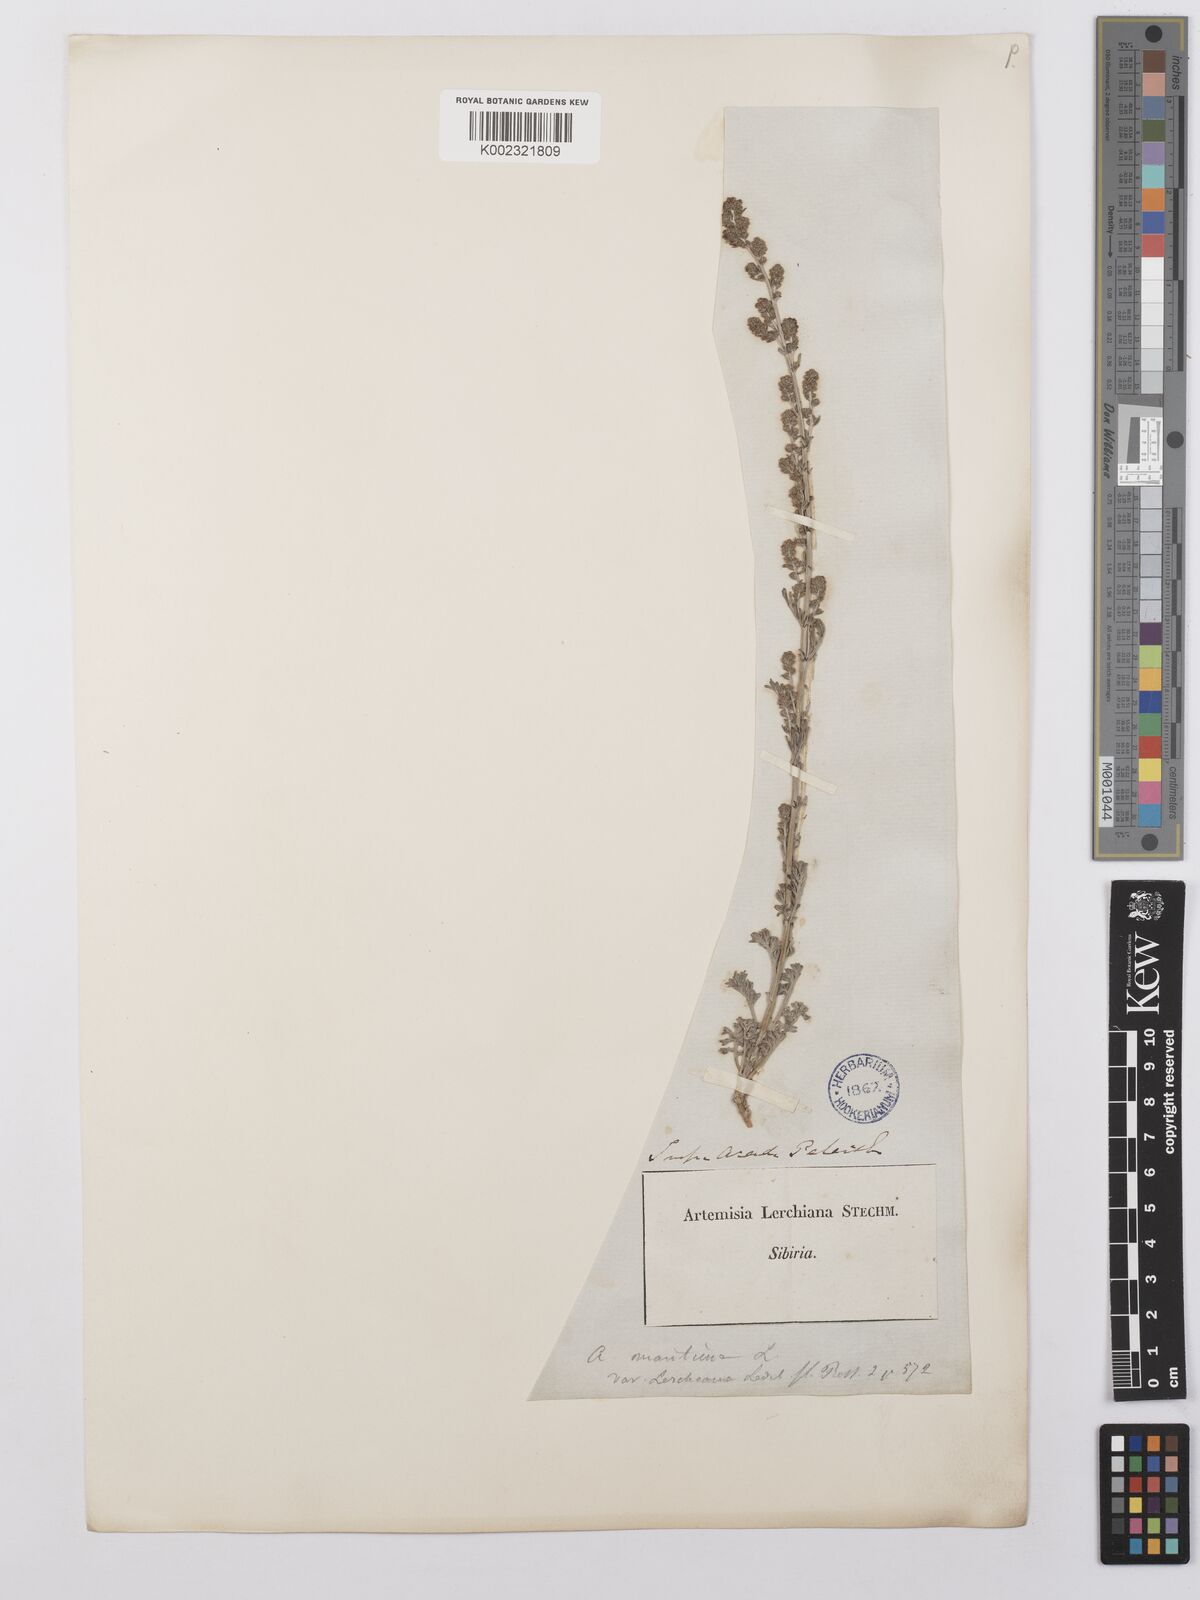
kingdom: Plantae
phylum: Tracheophyta
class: Magnoliopsida
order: Asterales
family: Asteraceae
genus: Artemisia
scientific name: Artemisia lercheana
